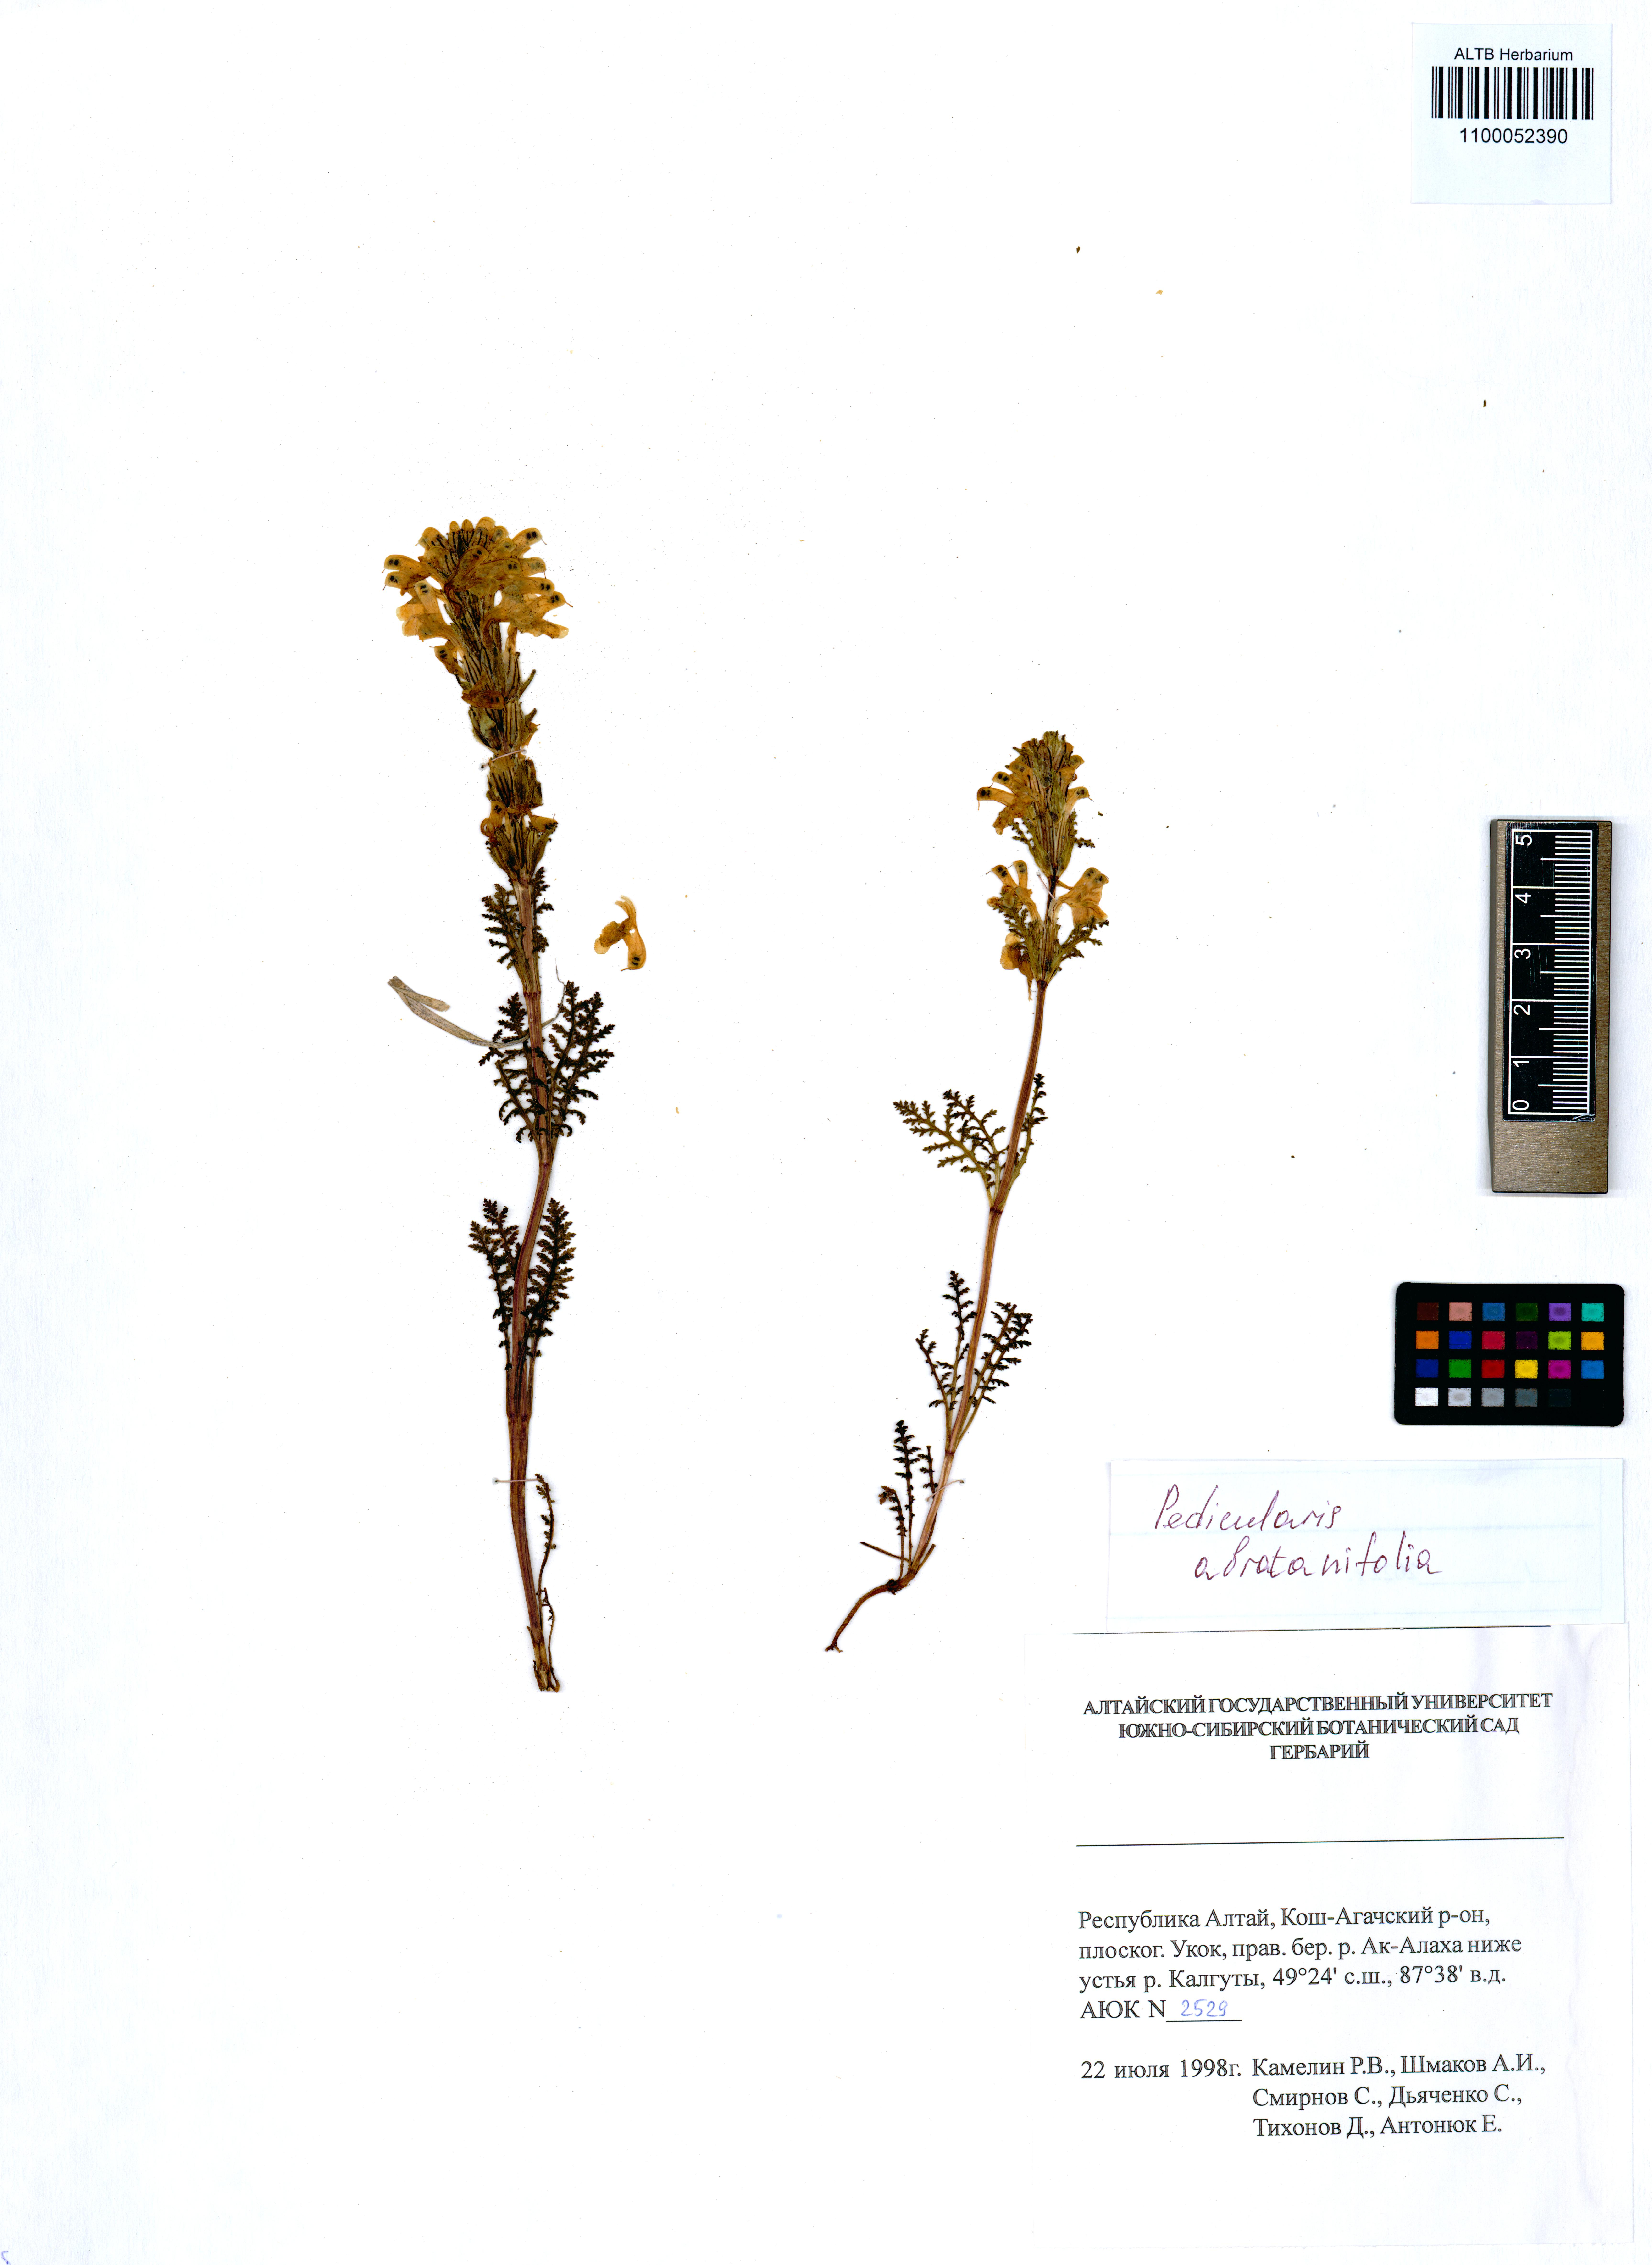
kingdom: Plantae
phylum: Tracheophyta
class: Magnoliopsida
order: Lamiales
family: Orobanchaceae
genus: Pedicularis
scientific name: Pedicularis abrotanifolia
